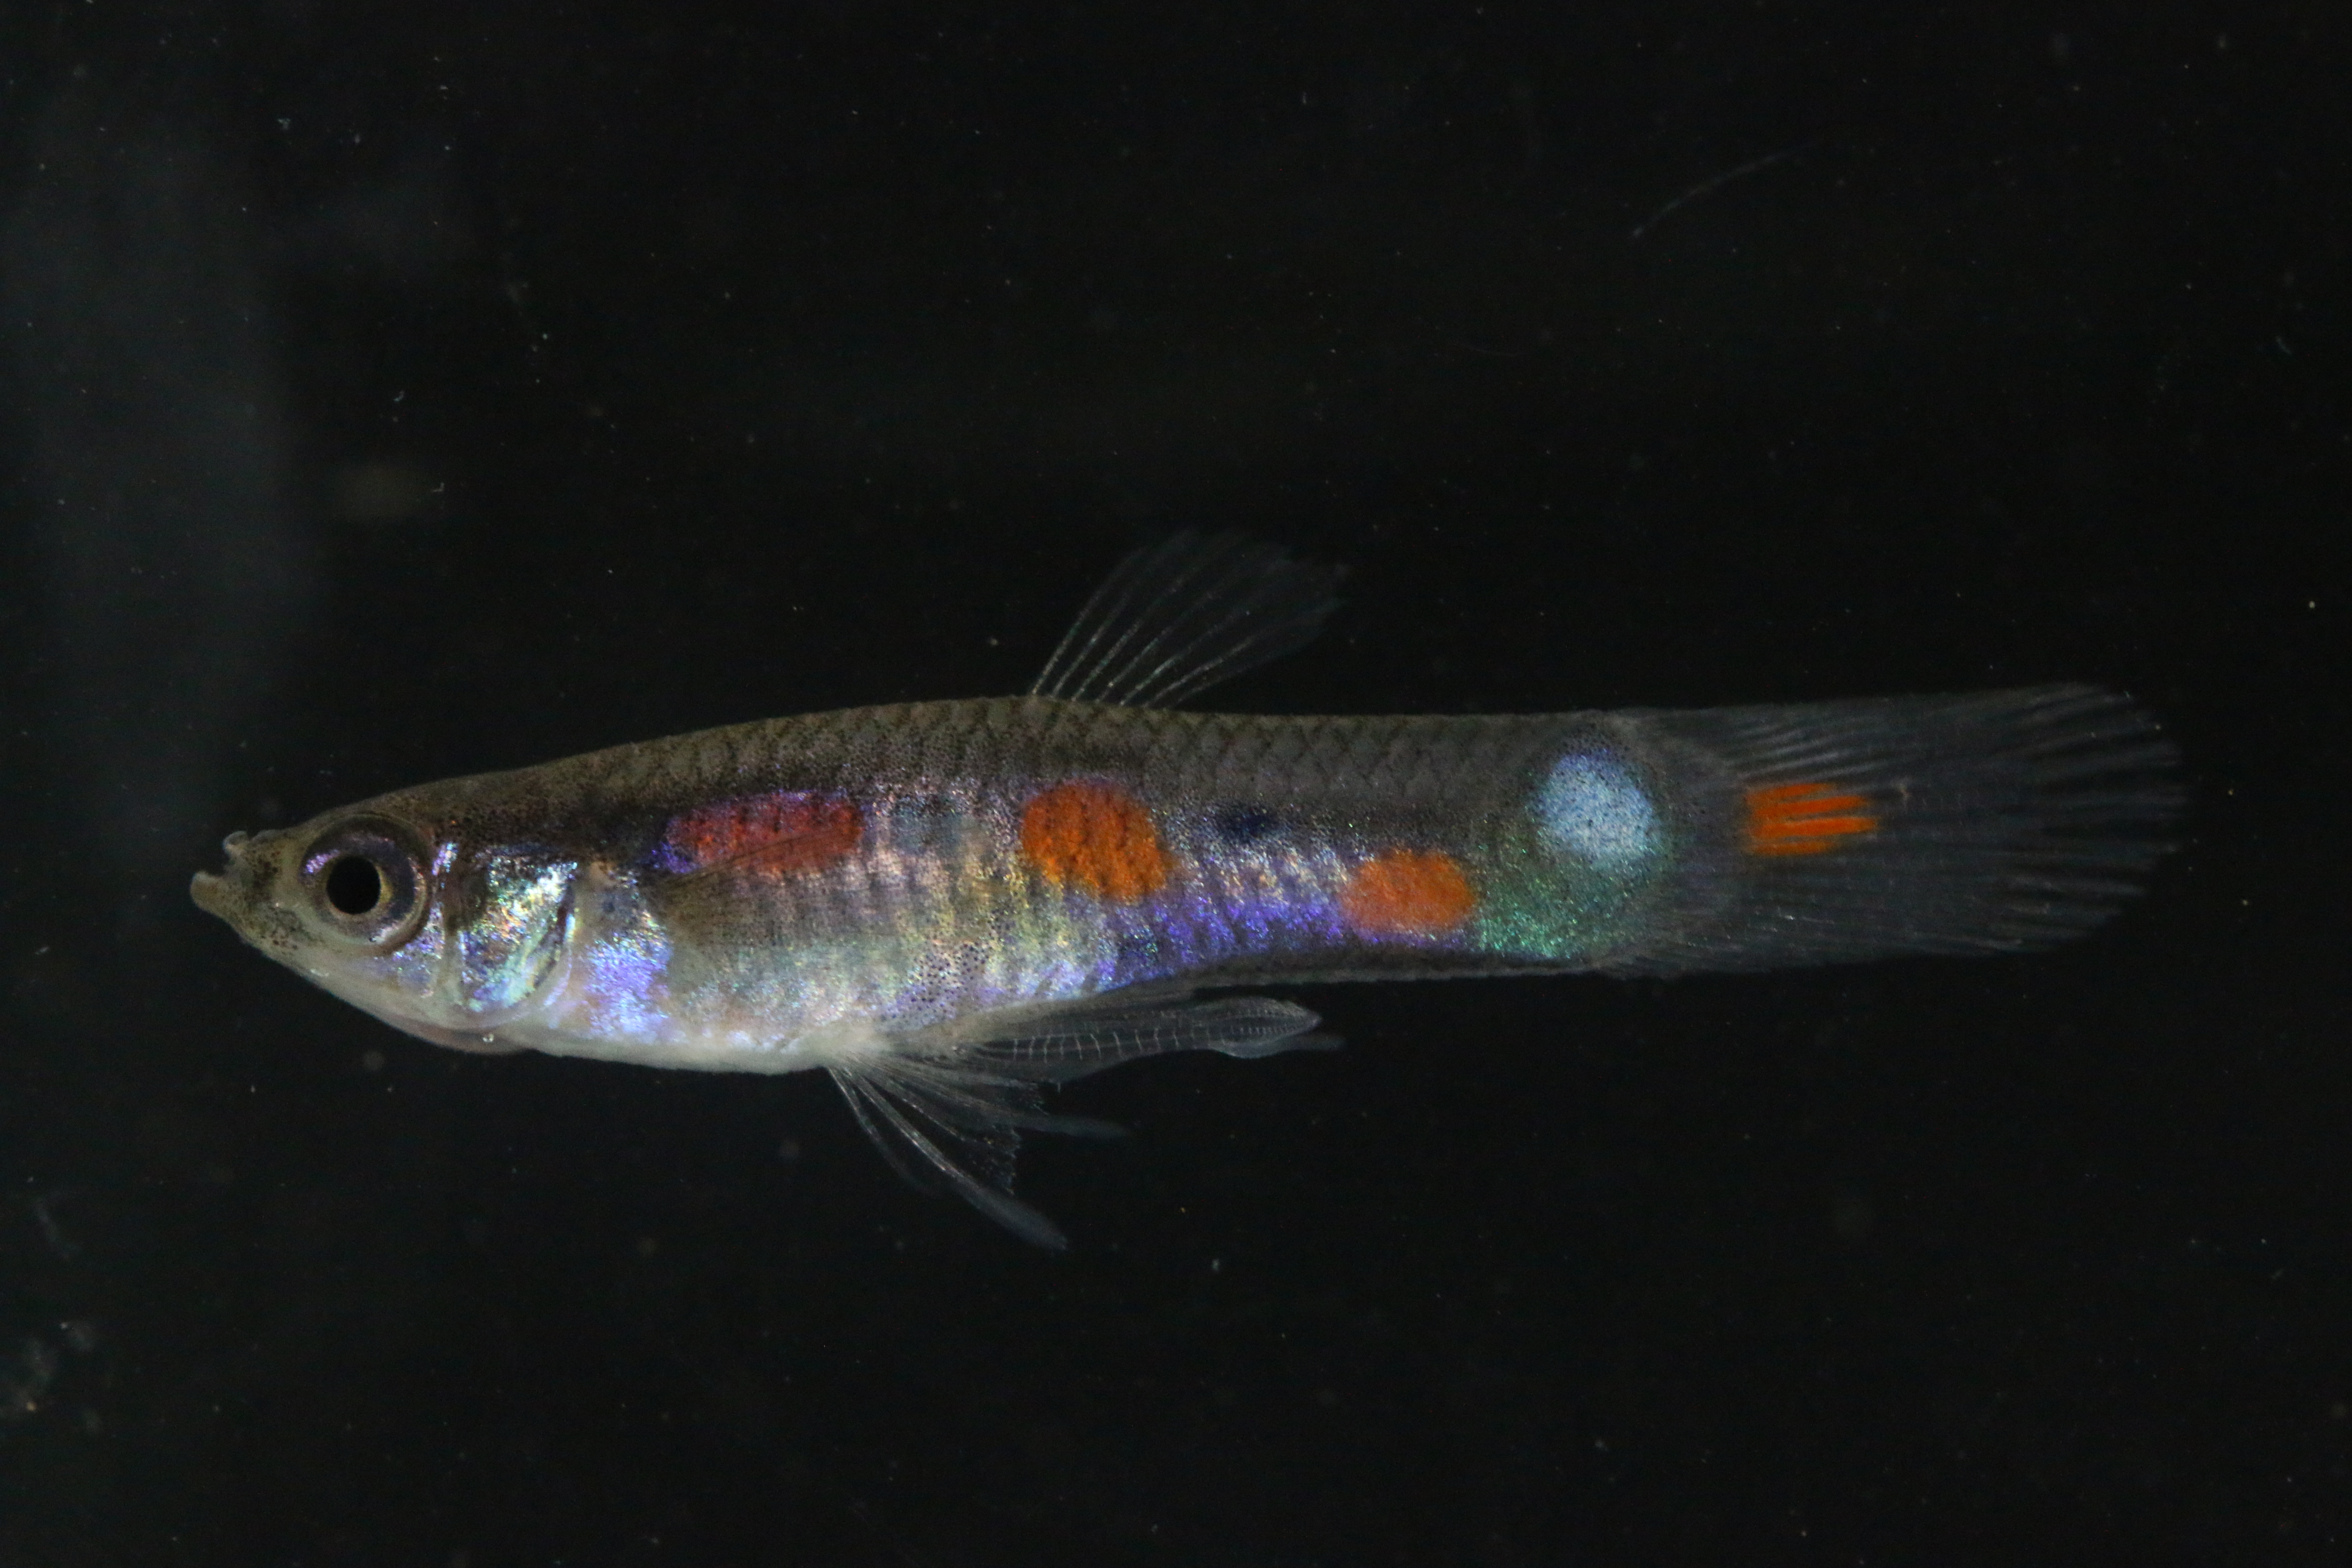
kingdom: Animalia
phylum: Chordata
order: Cyprinodontiformes
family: Poeciliidae
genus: Poecilia
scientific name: Poecilia reticulata
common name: Guppy
